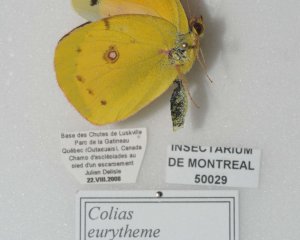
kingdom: Animalia
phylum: Arthropoda
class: Insecta
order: Lepidoptera
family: Pieridae
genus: Colias
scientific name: Colias eurytheme
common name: Orange Sulphur
